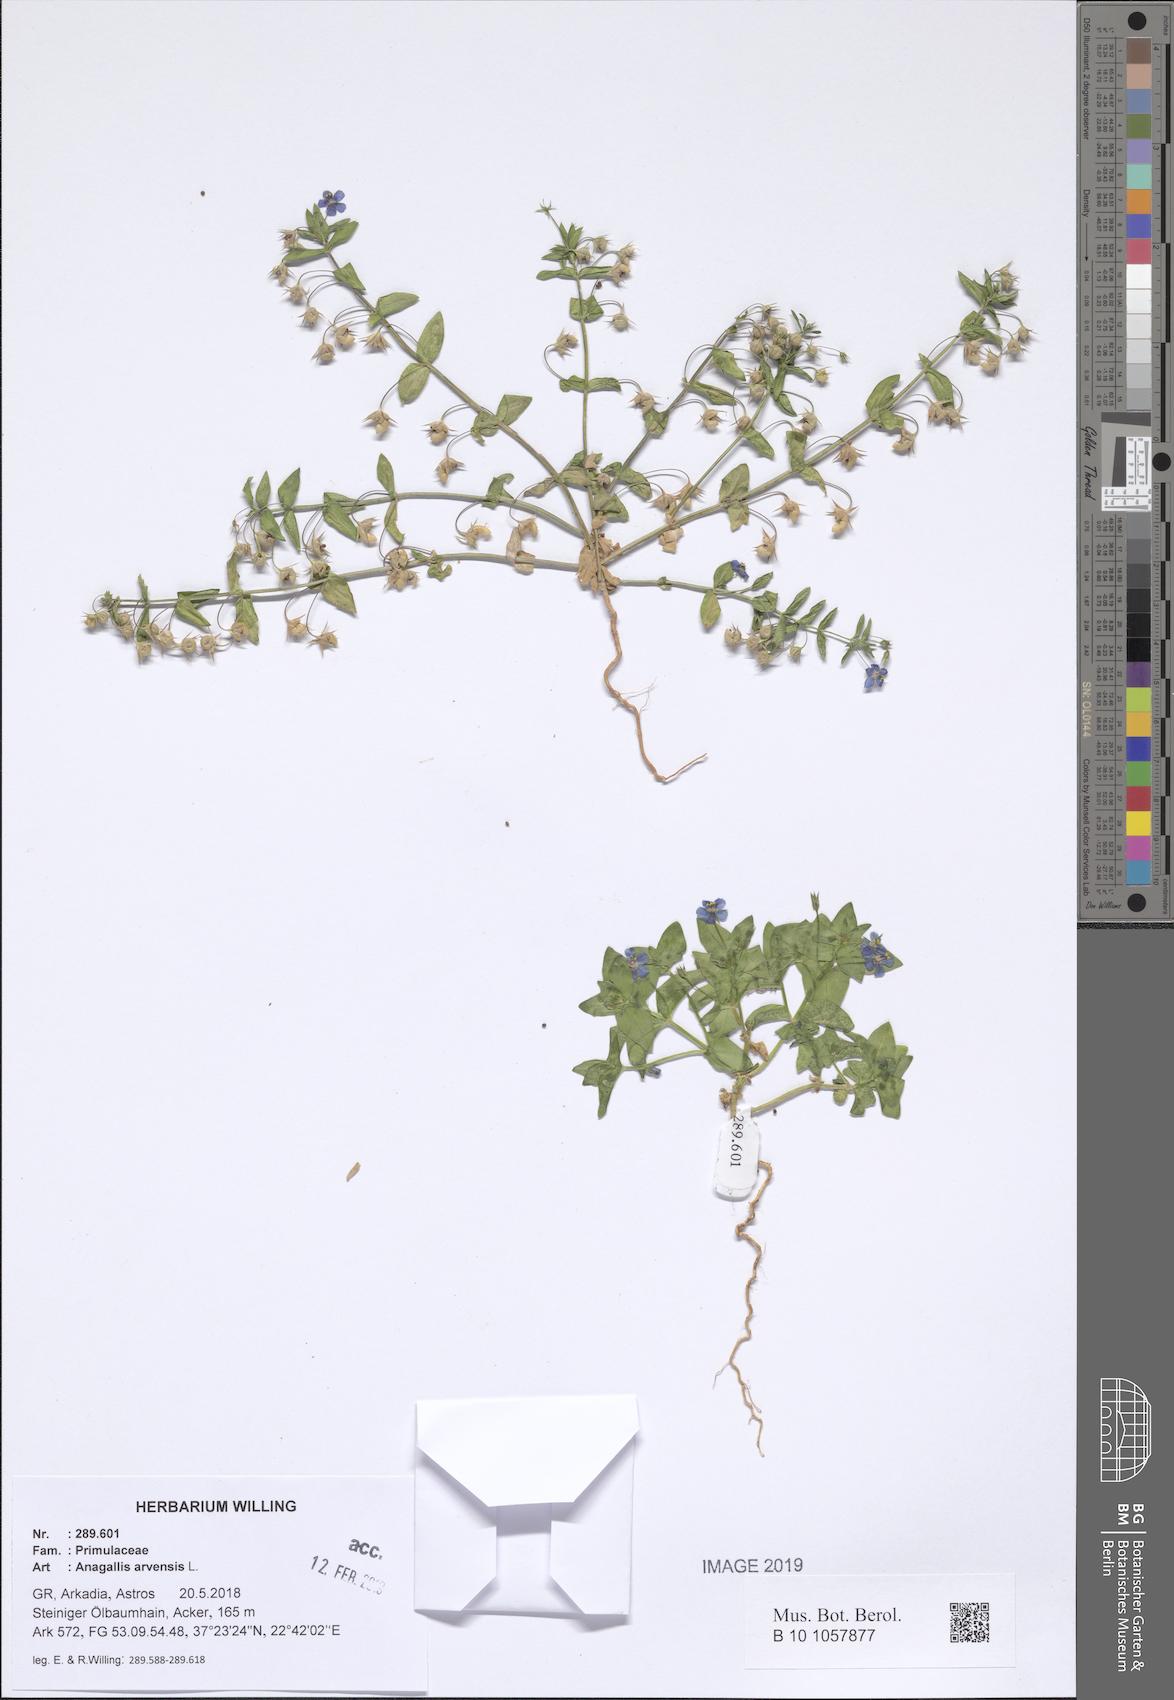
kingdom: Plantae
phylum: Tracheophyta
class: Magnoliopsida
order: Ericales
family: Primulaceae
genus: Lysimachia
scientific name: Lysimachia arvensis
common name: Scarlet pimpernel
